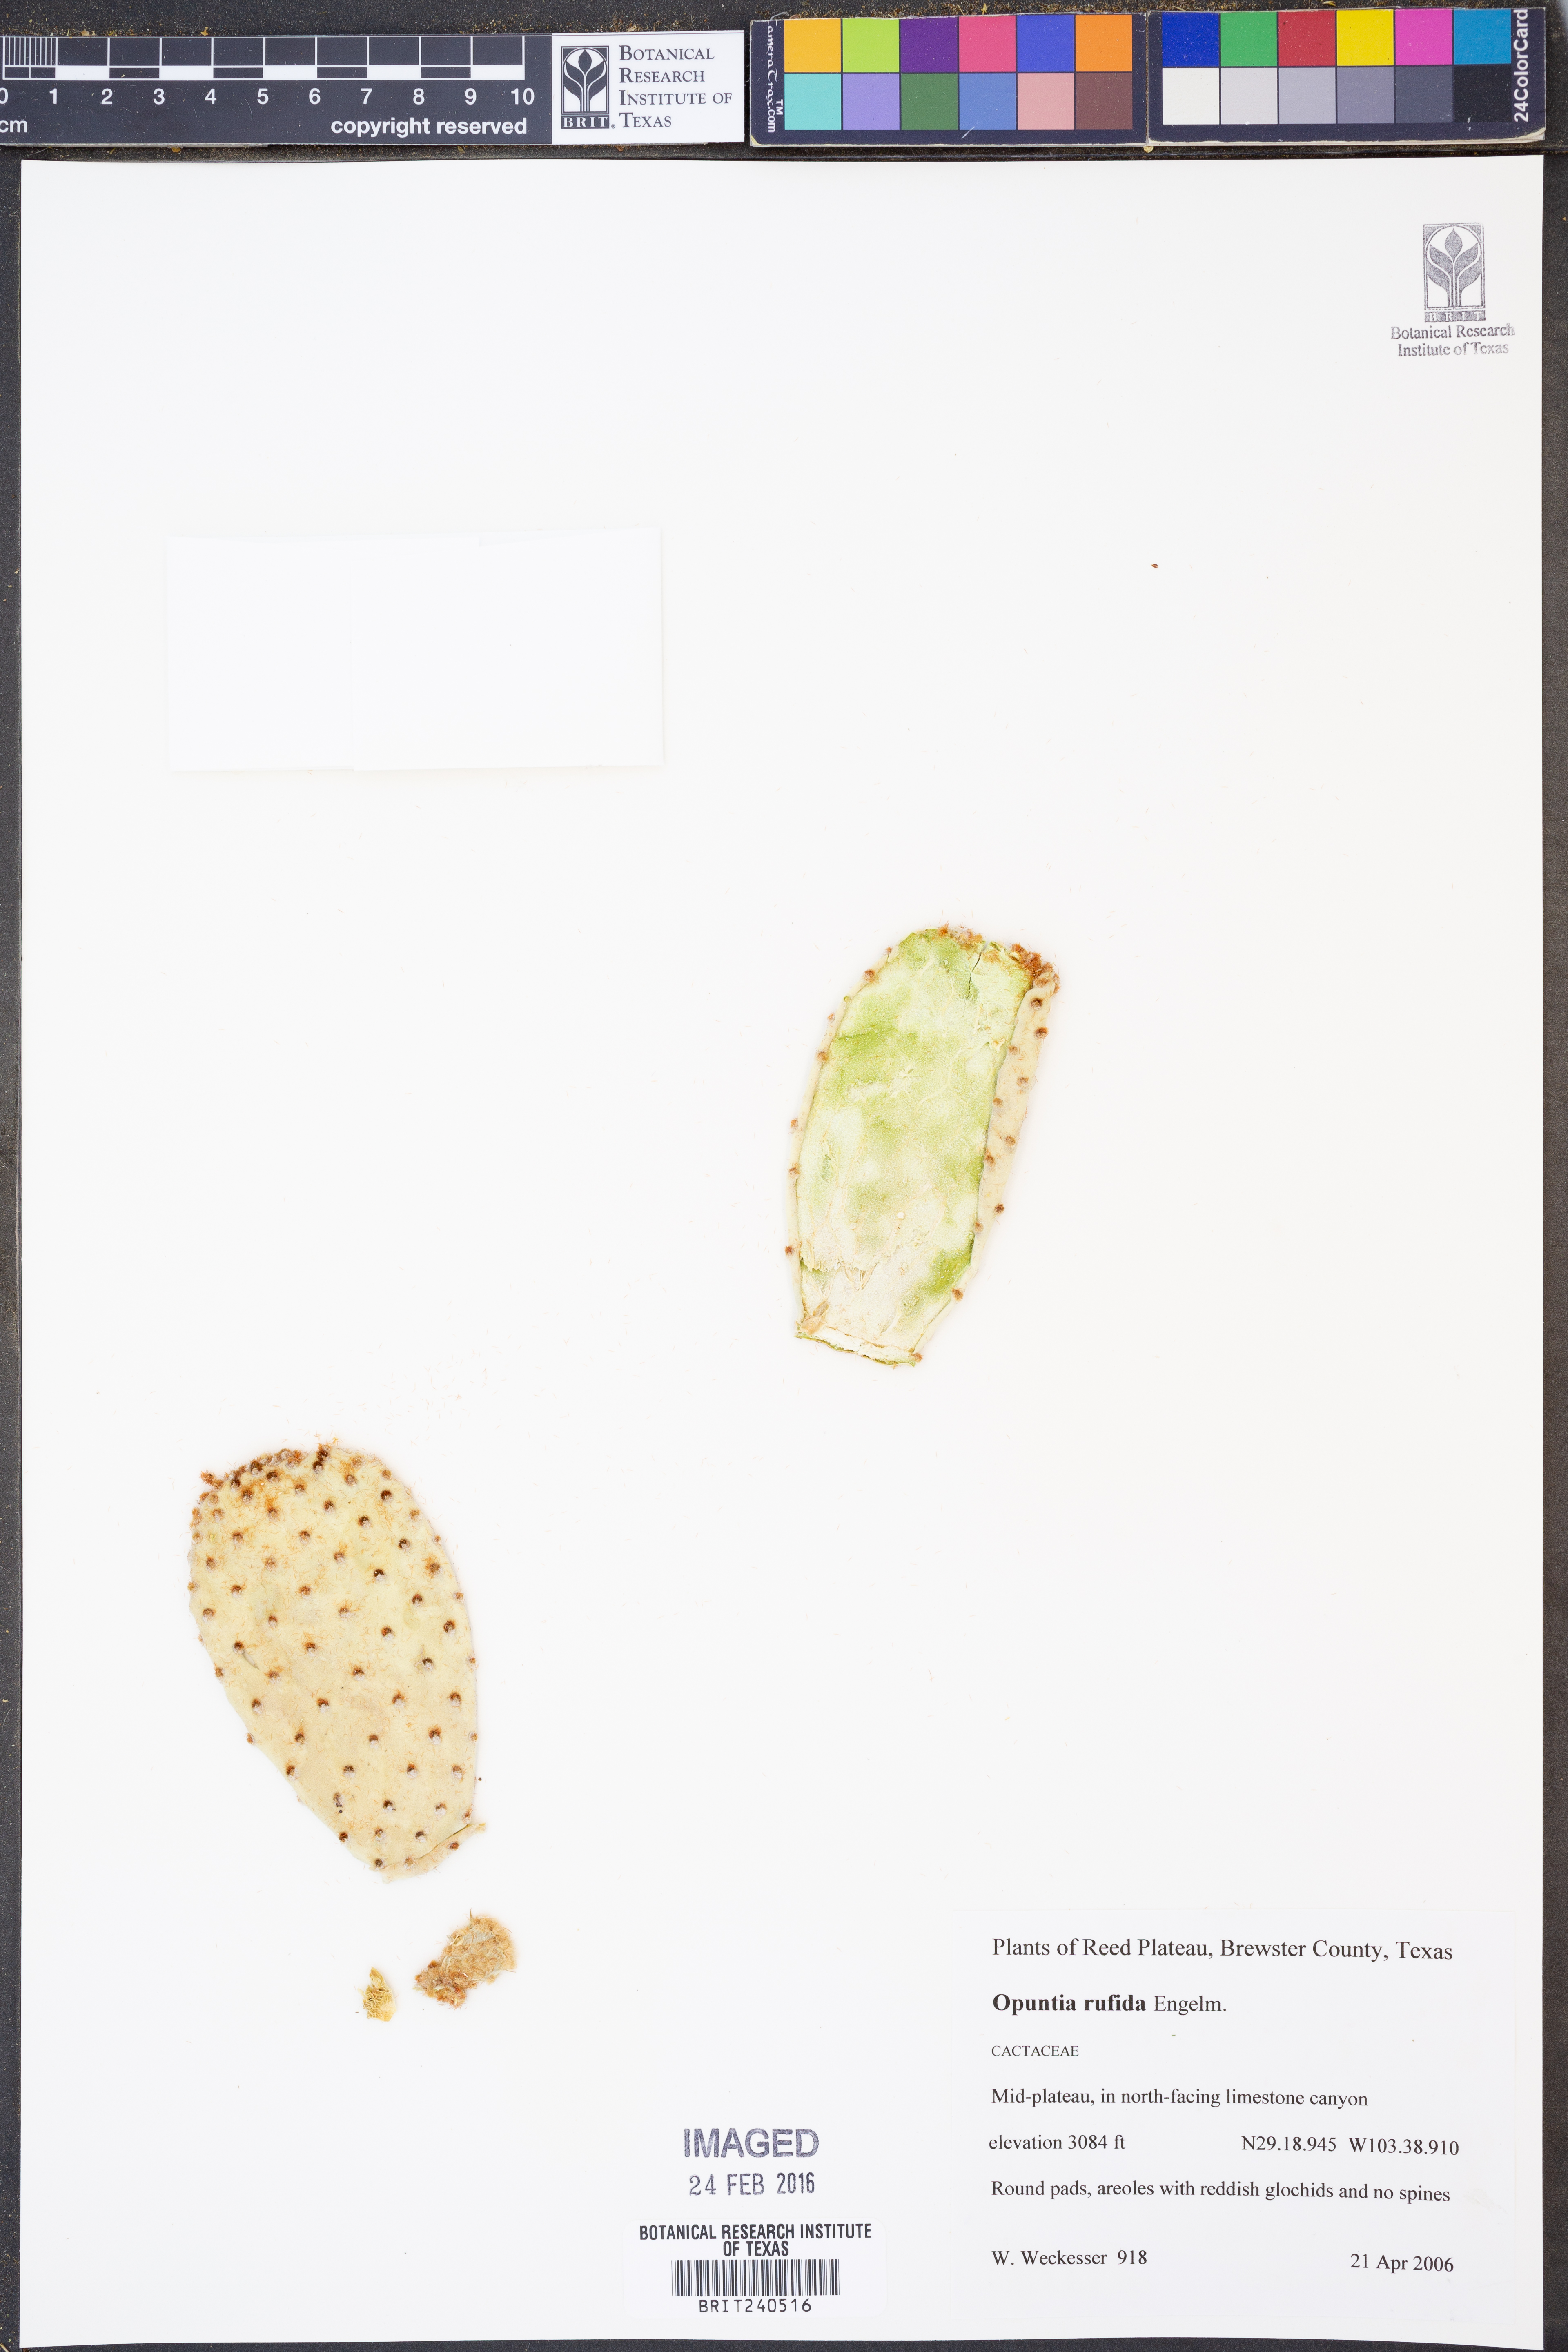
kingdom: Plantae
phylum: Tracheophyta
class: Magnoliopsida
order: Caryophyllales
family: Cactaceae
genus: Opuntia
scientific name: Opuntia rufida
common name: Blind pricklypear
